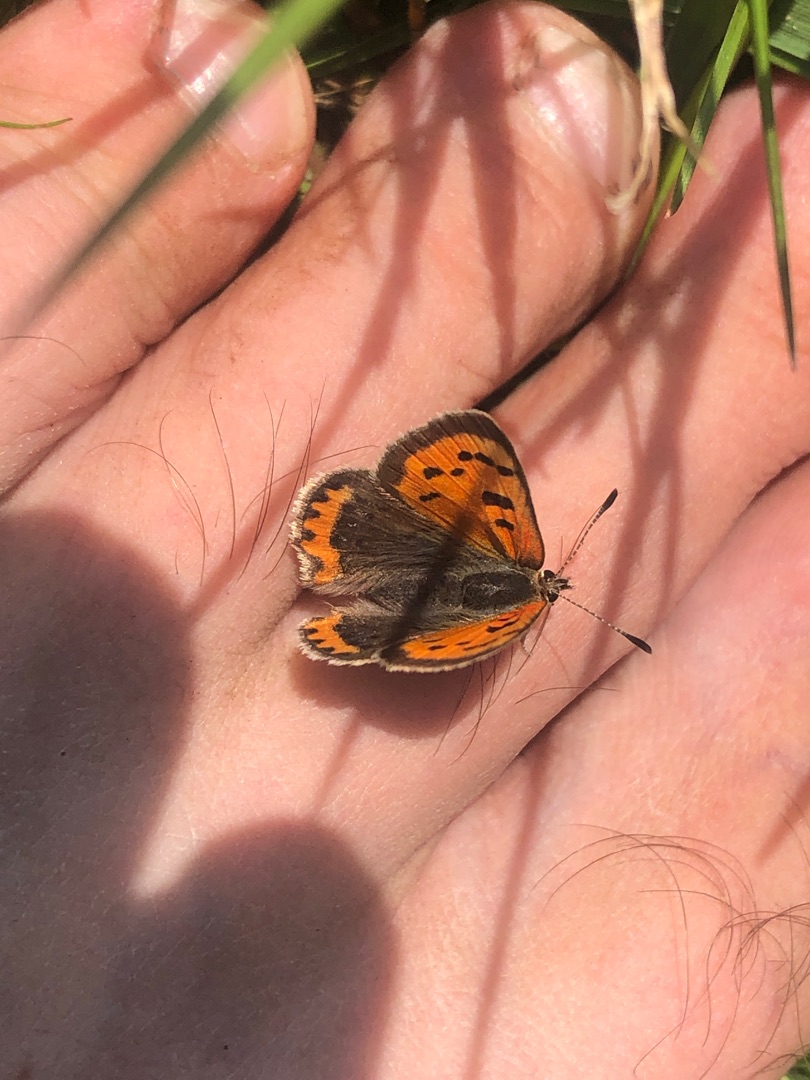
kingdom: Animalia
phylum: Arthropoda
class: Insecta
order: Lepidoptera
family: Lycaenidae
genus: Lycaena
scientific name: Lycaena phlaeas
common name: Lille ildfugl
